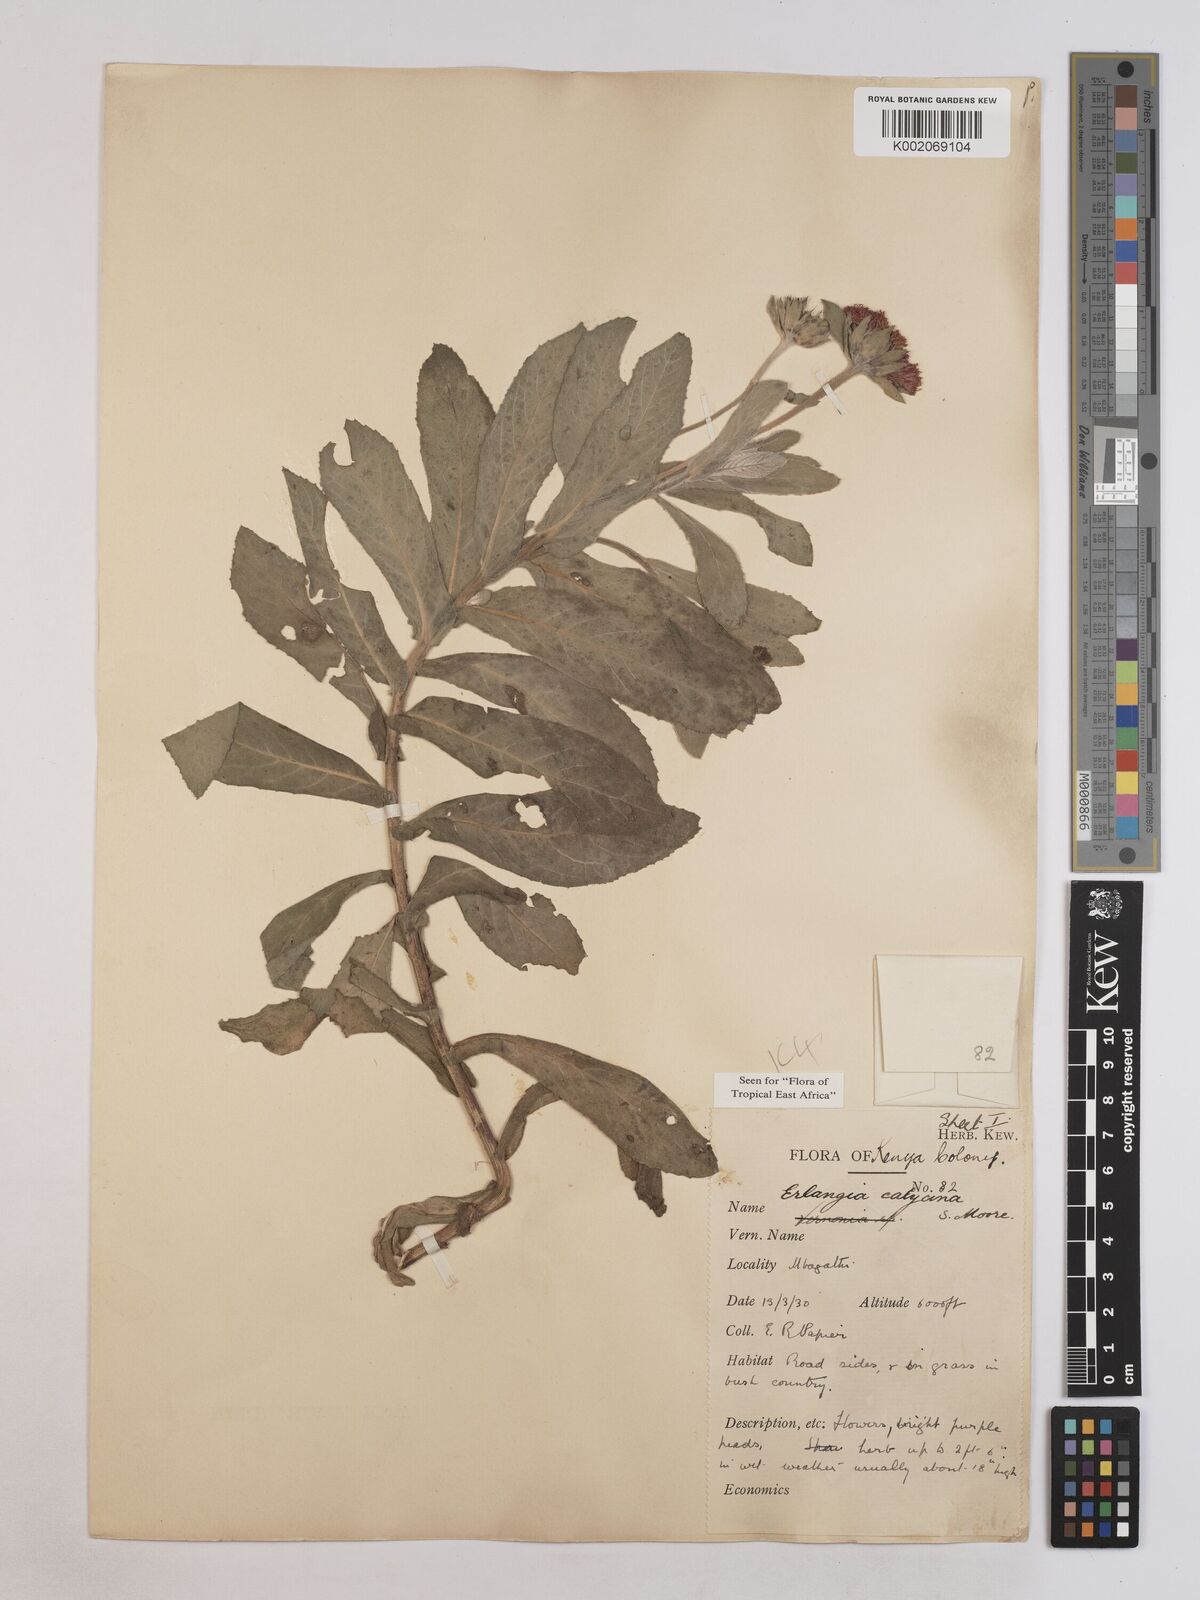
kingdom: Plantae
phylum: Tracheophyta
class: Magnoliopsida
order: Asterales
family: Asteraceae
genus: Erlangea
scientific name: Erlangea calycina
